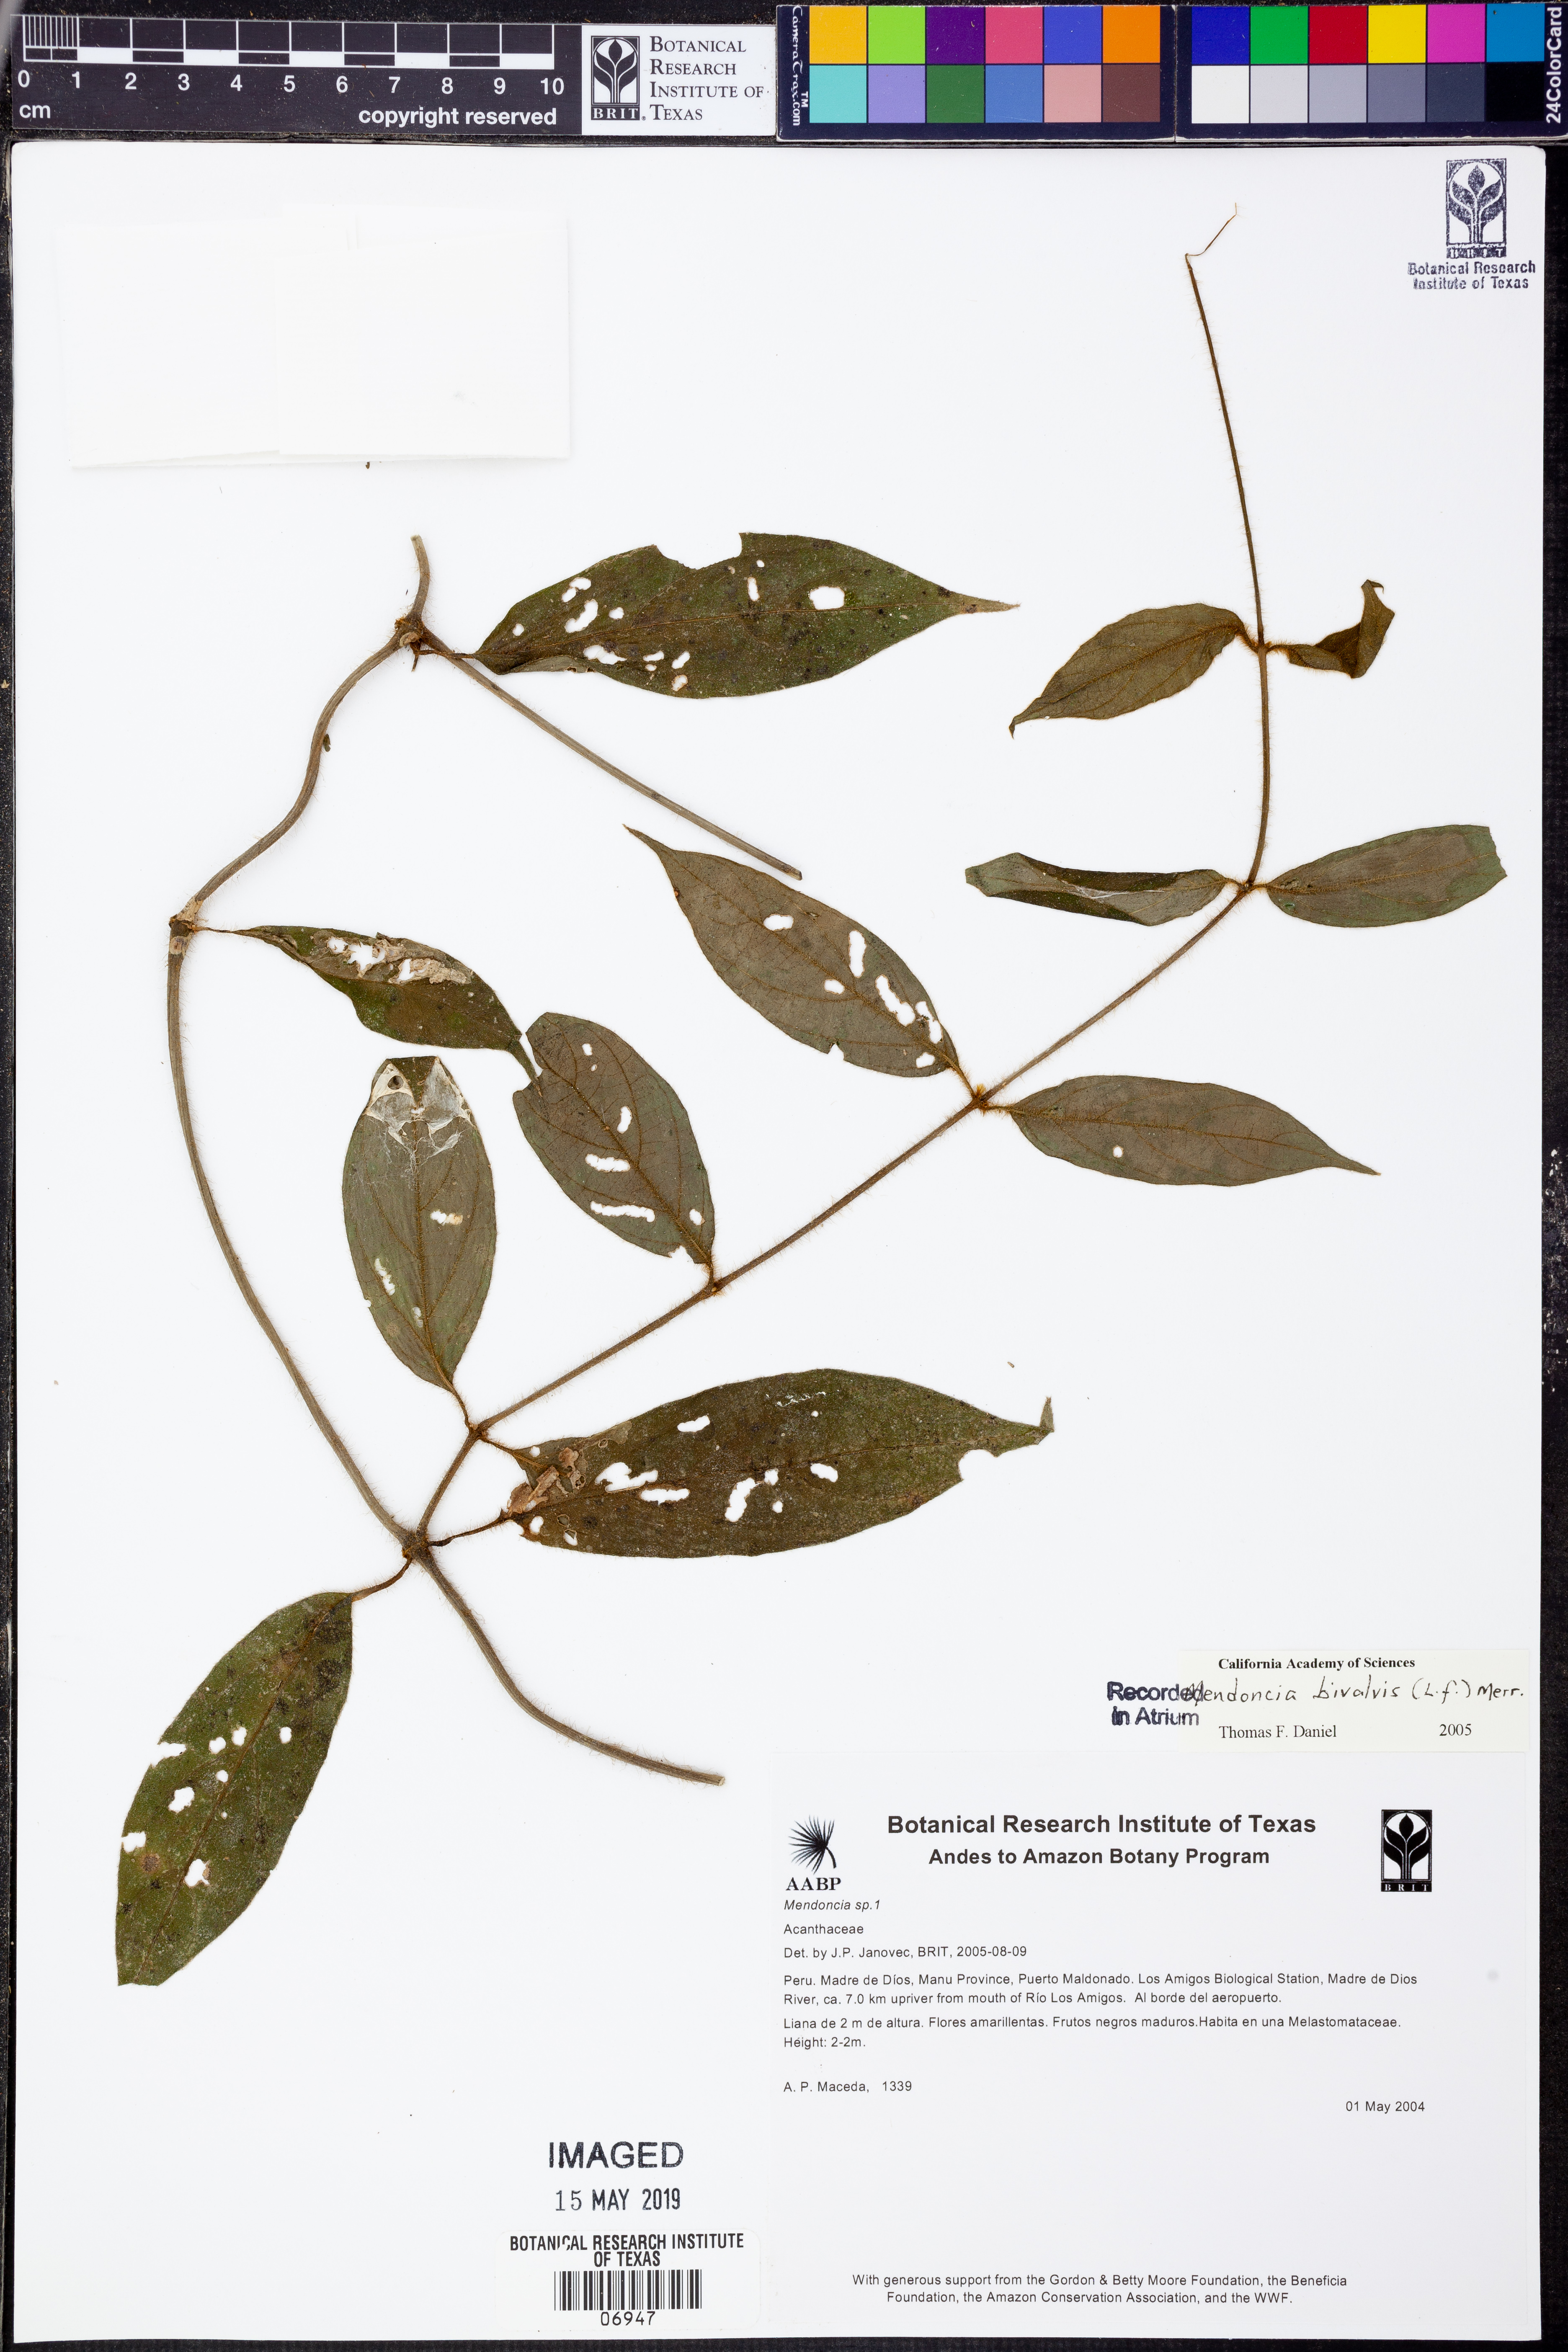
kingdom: Plantae
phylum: Tracheophyta
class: Magnoliopsida
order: Lamiales
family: Acanthaceae
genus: Mendoncia
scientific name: Mendoncia
